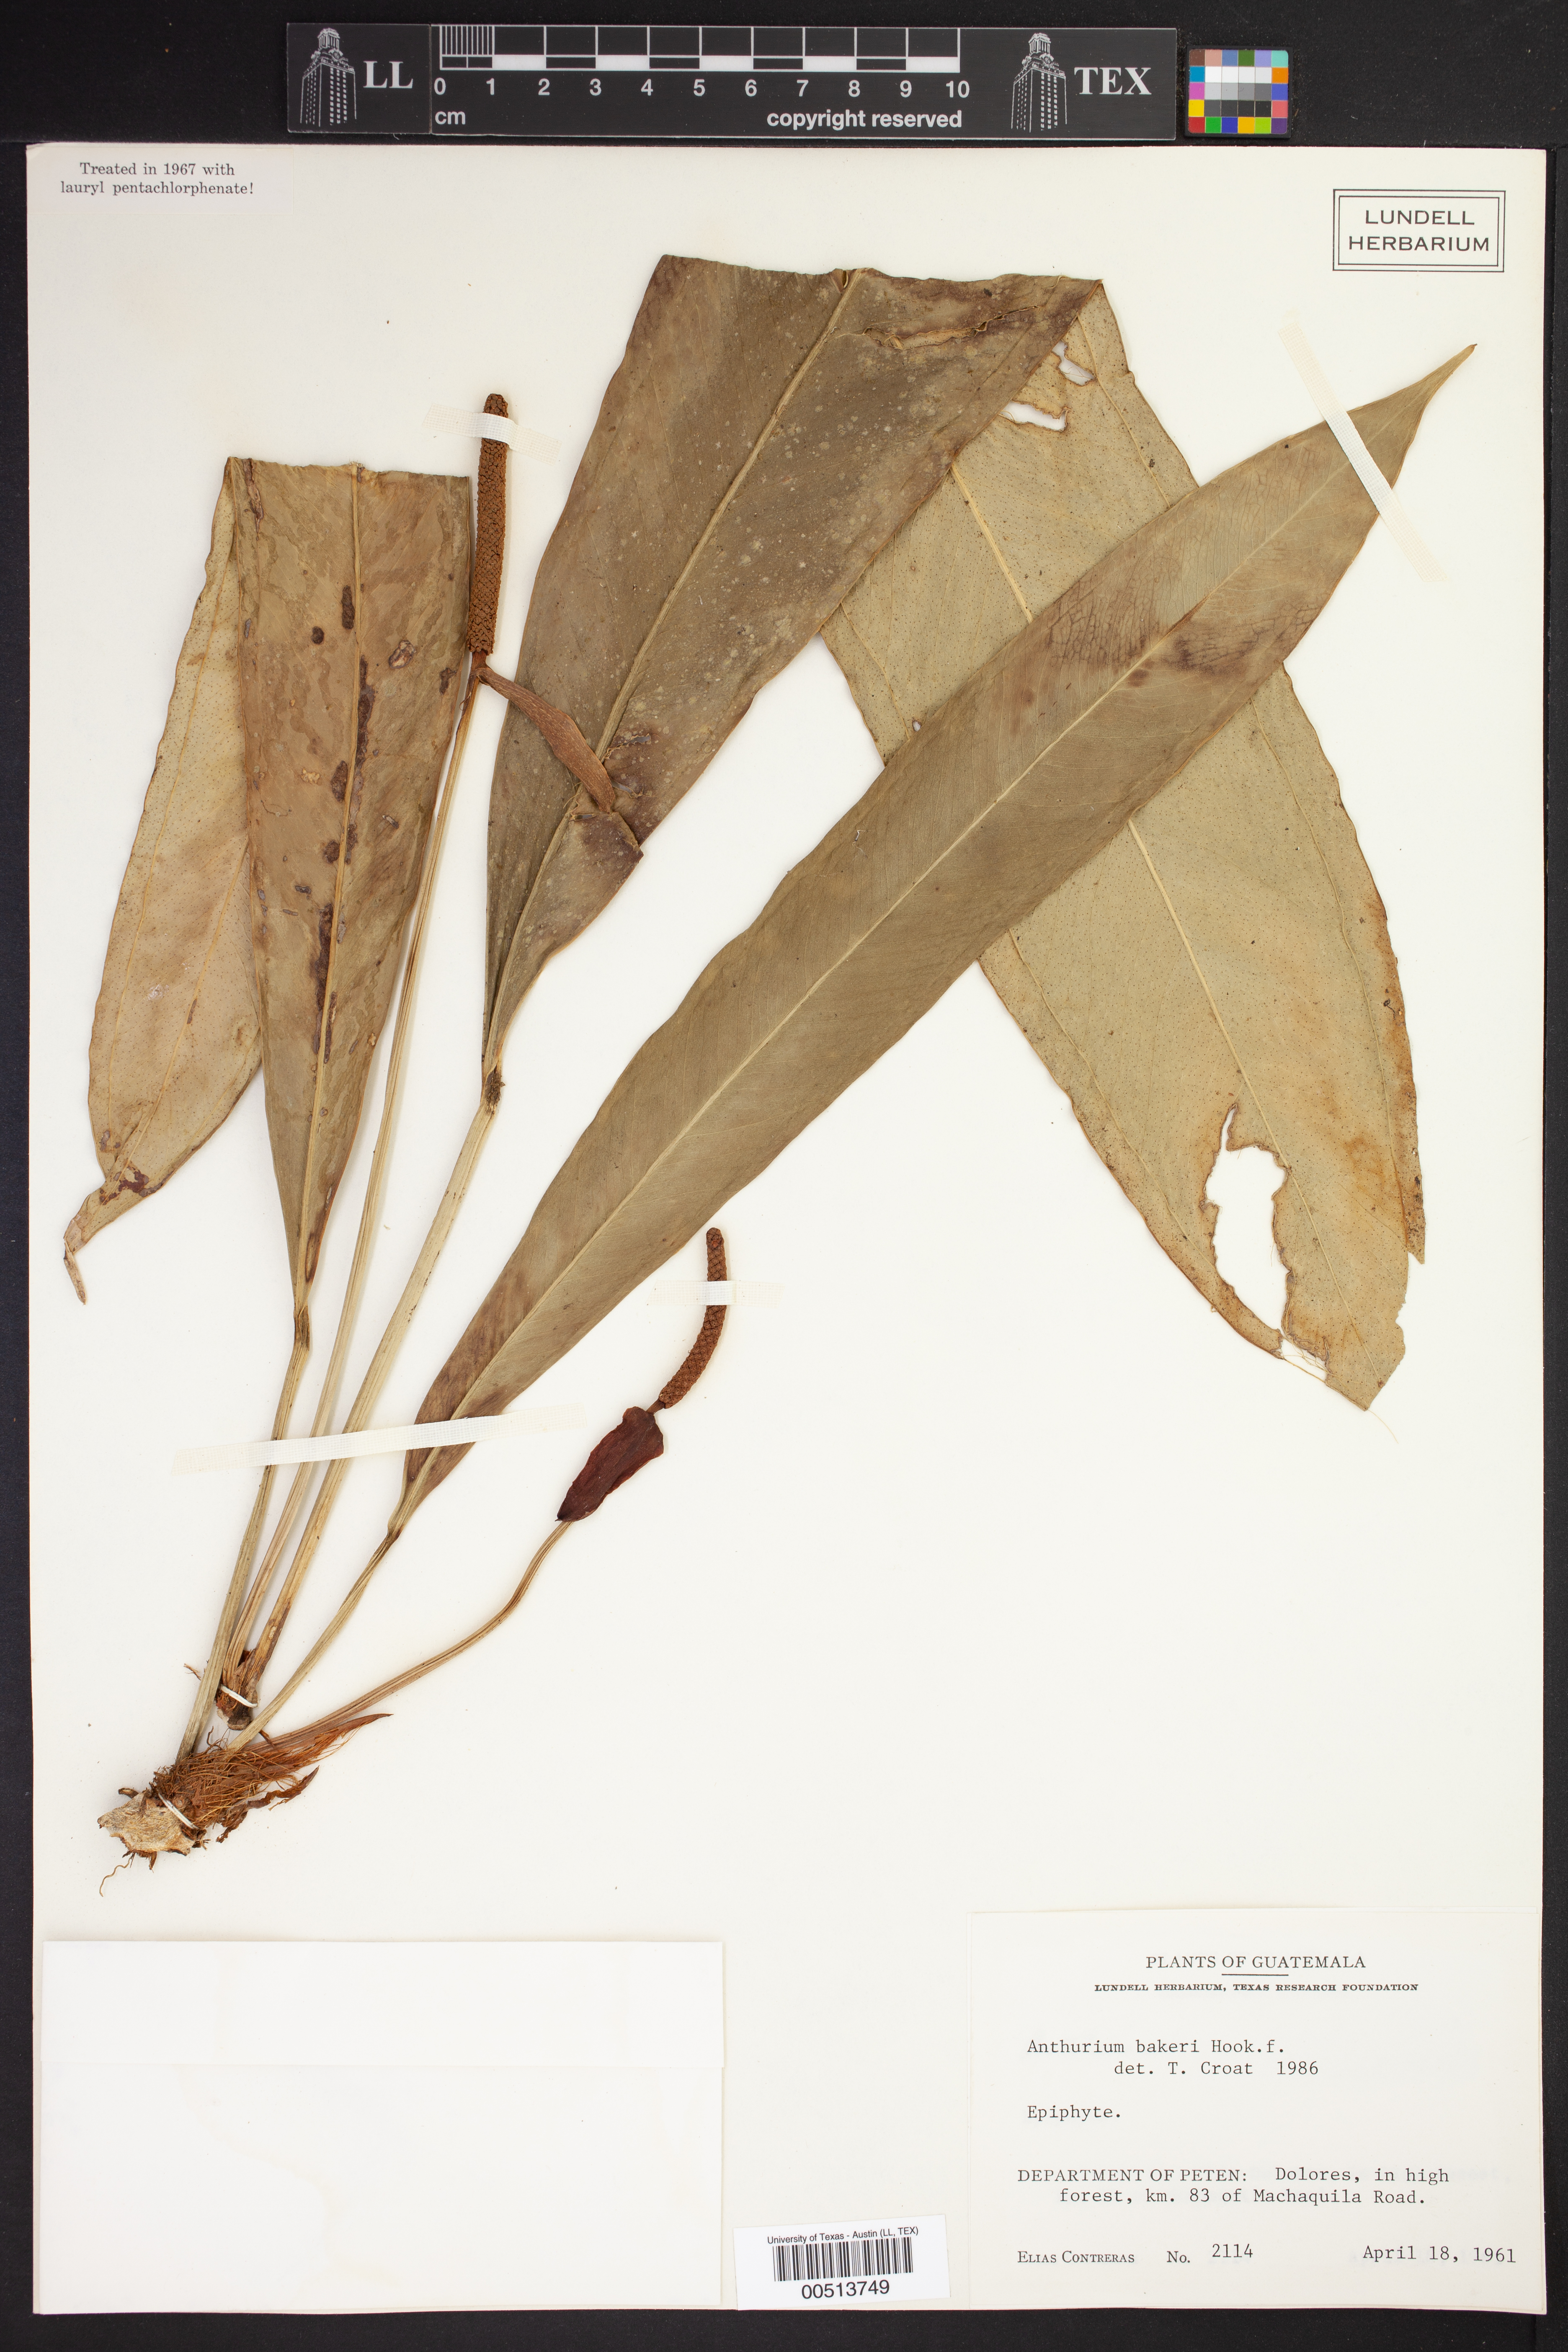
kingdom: Plantae
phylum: Tracheophyta
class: Liliopsida
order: Alismatales
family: Araceae
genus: Anthurium
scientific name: Anthurium bakeri
